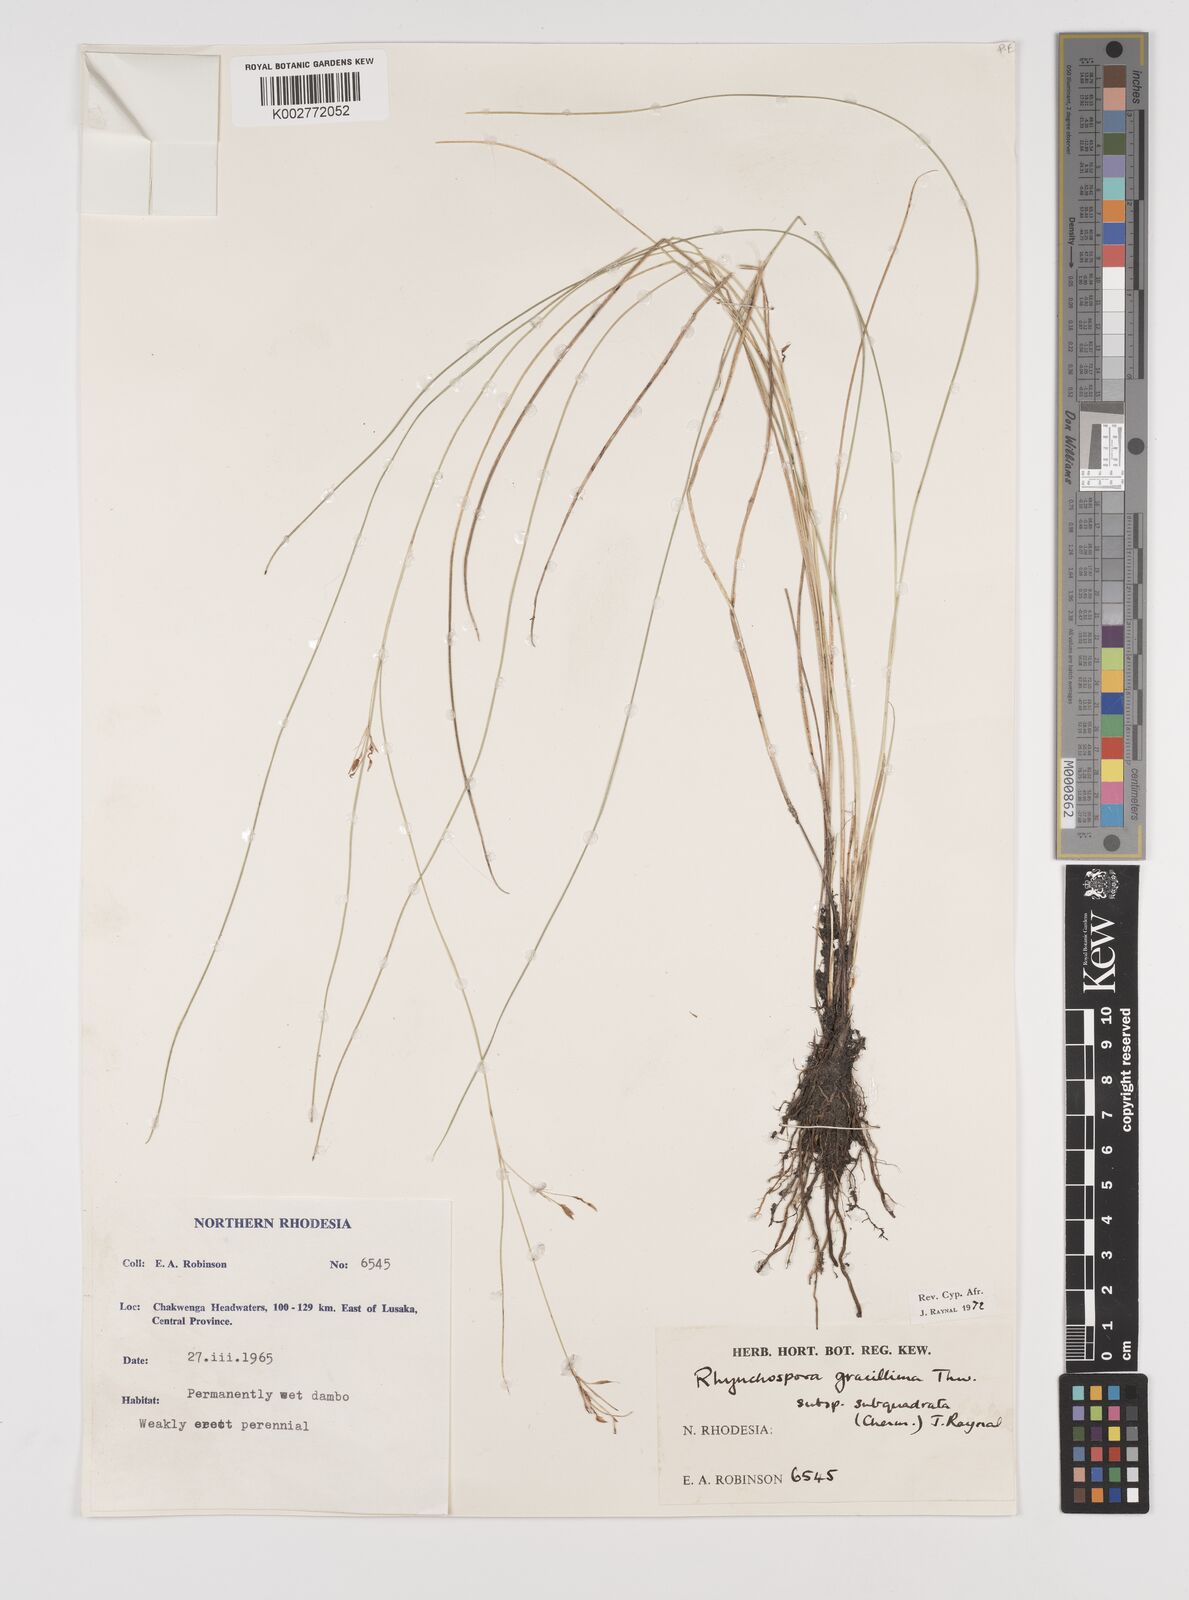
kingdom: Plantae
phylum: Tracheophyta
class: Liliopsida
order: Poales
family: Cyperaceae
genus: Rhynchospora
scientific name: Rhynchospora gracillima
